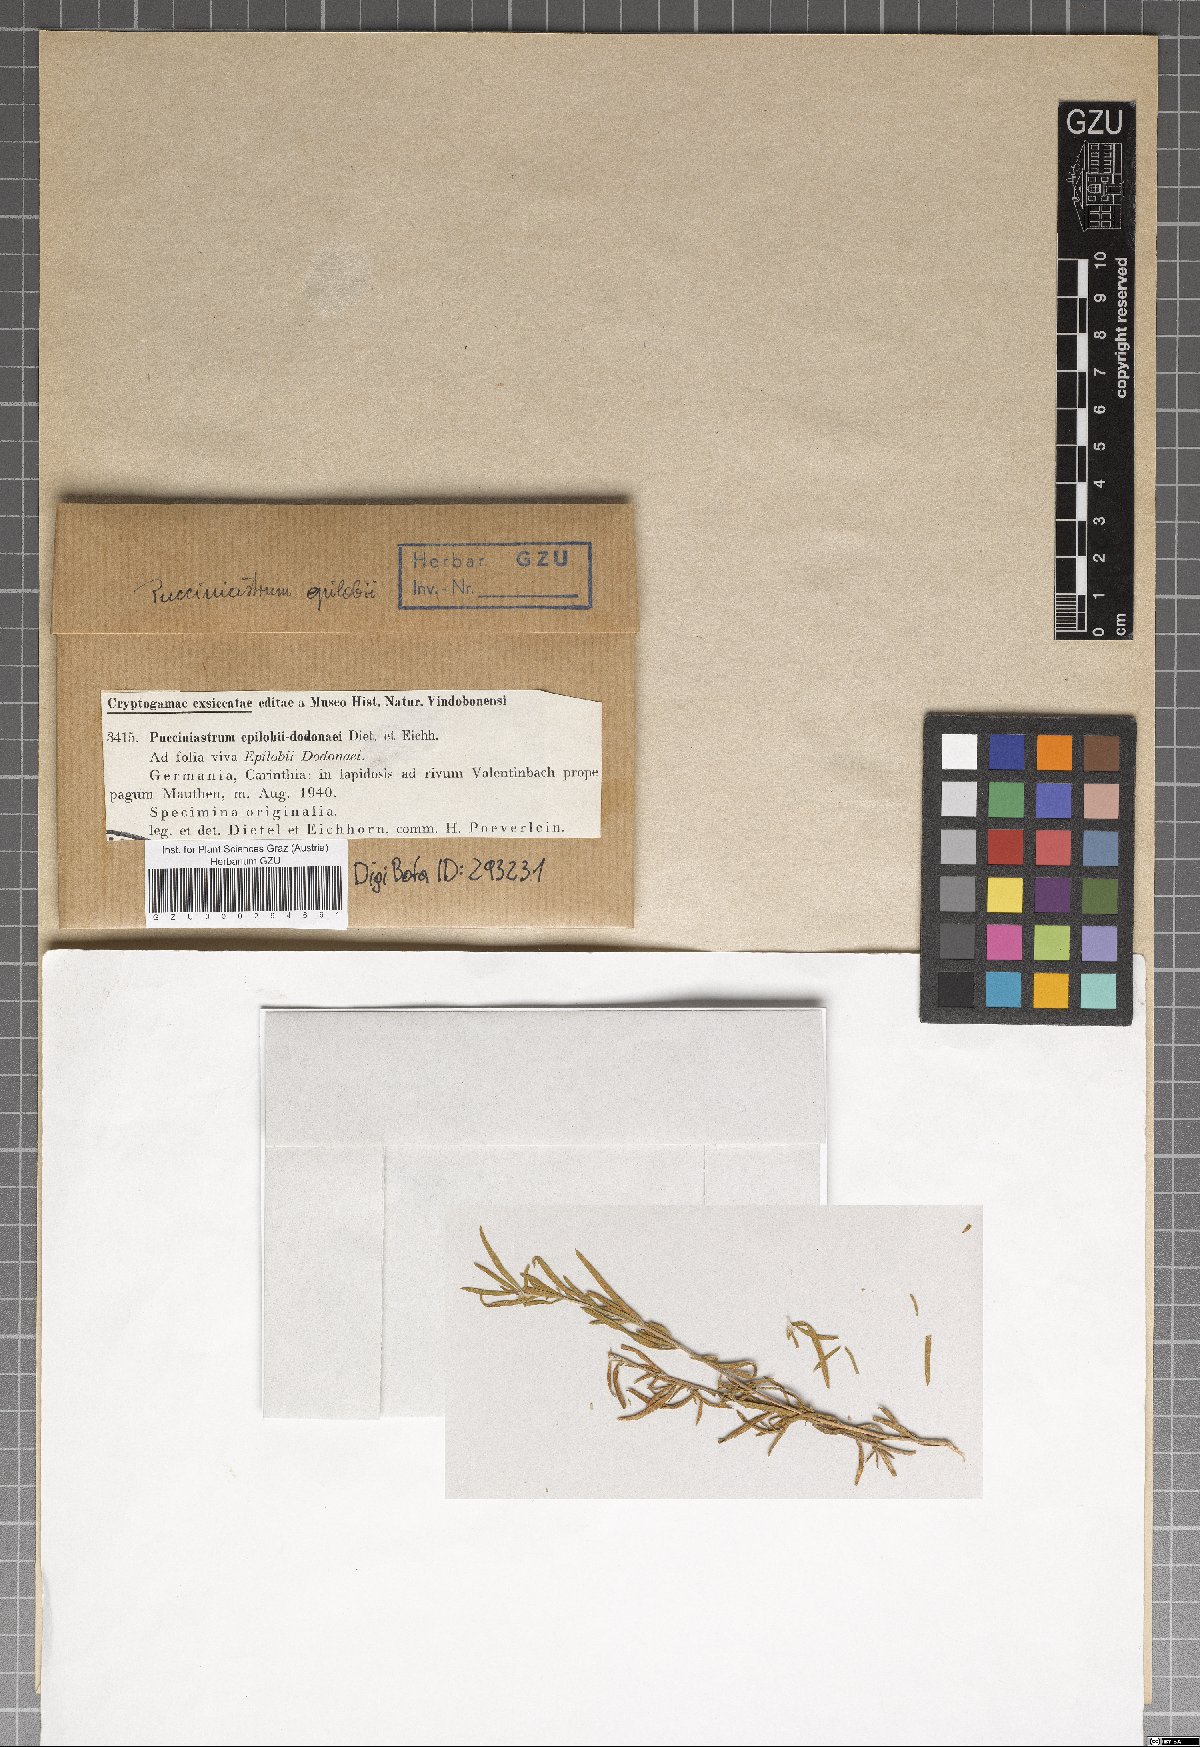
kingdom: Fungi
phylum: Basidiomycota
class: Pucciniomycetes
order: Pucciniales
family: Pucciniastraceae
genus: Pucciniastrum
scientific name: Pucciniastrum epilobii-dodonaei
